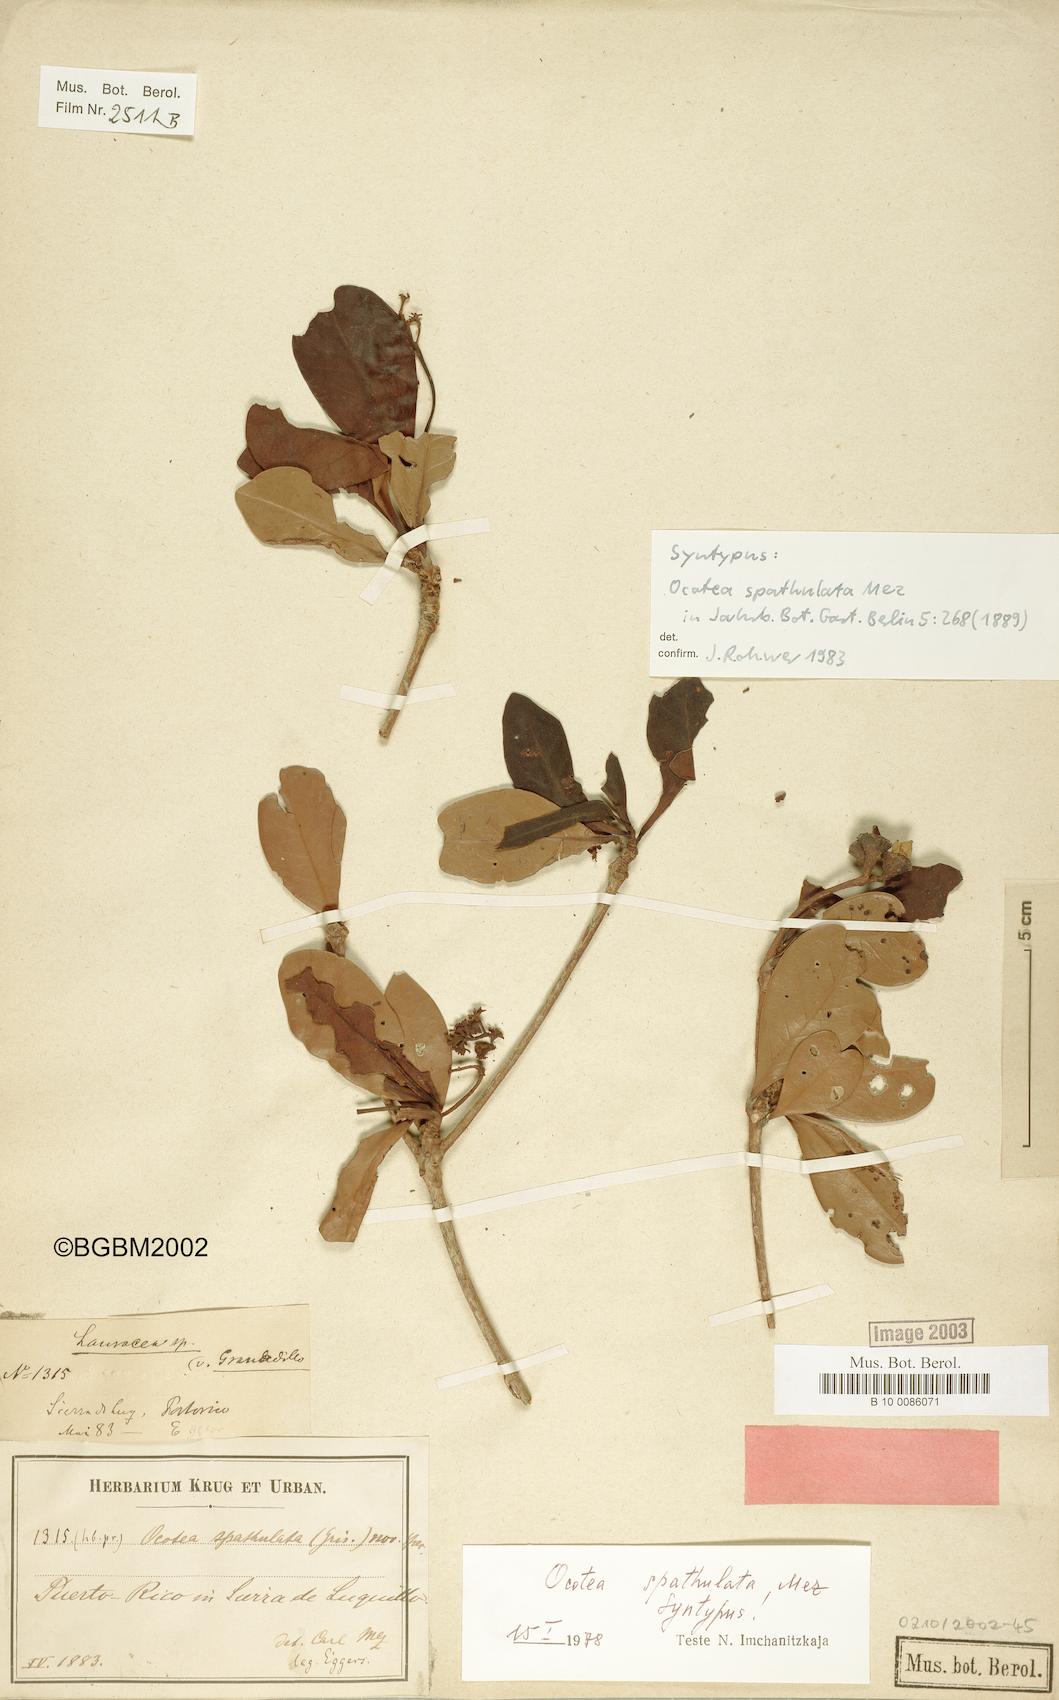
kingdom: Plantae
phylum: Tracheophyta
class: Magnoliopsida
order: Laurales
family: Lauraceae
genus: Ocotea
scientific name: Ocotea spathulata
